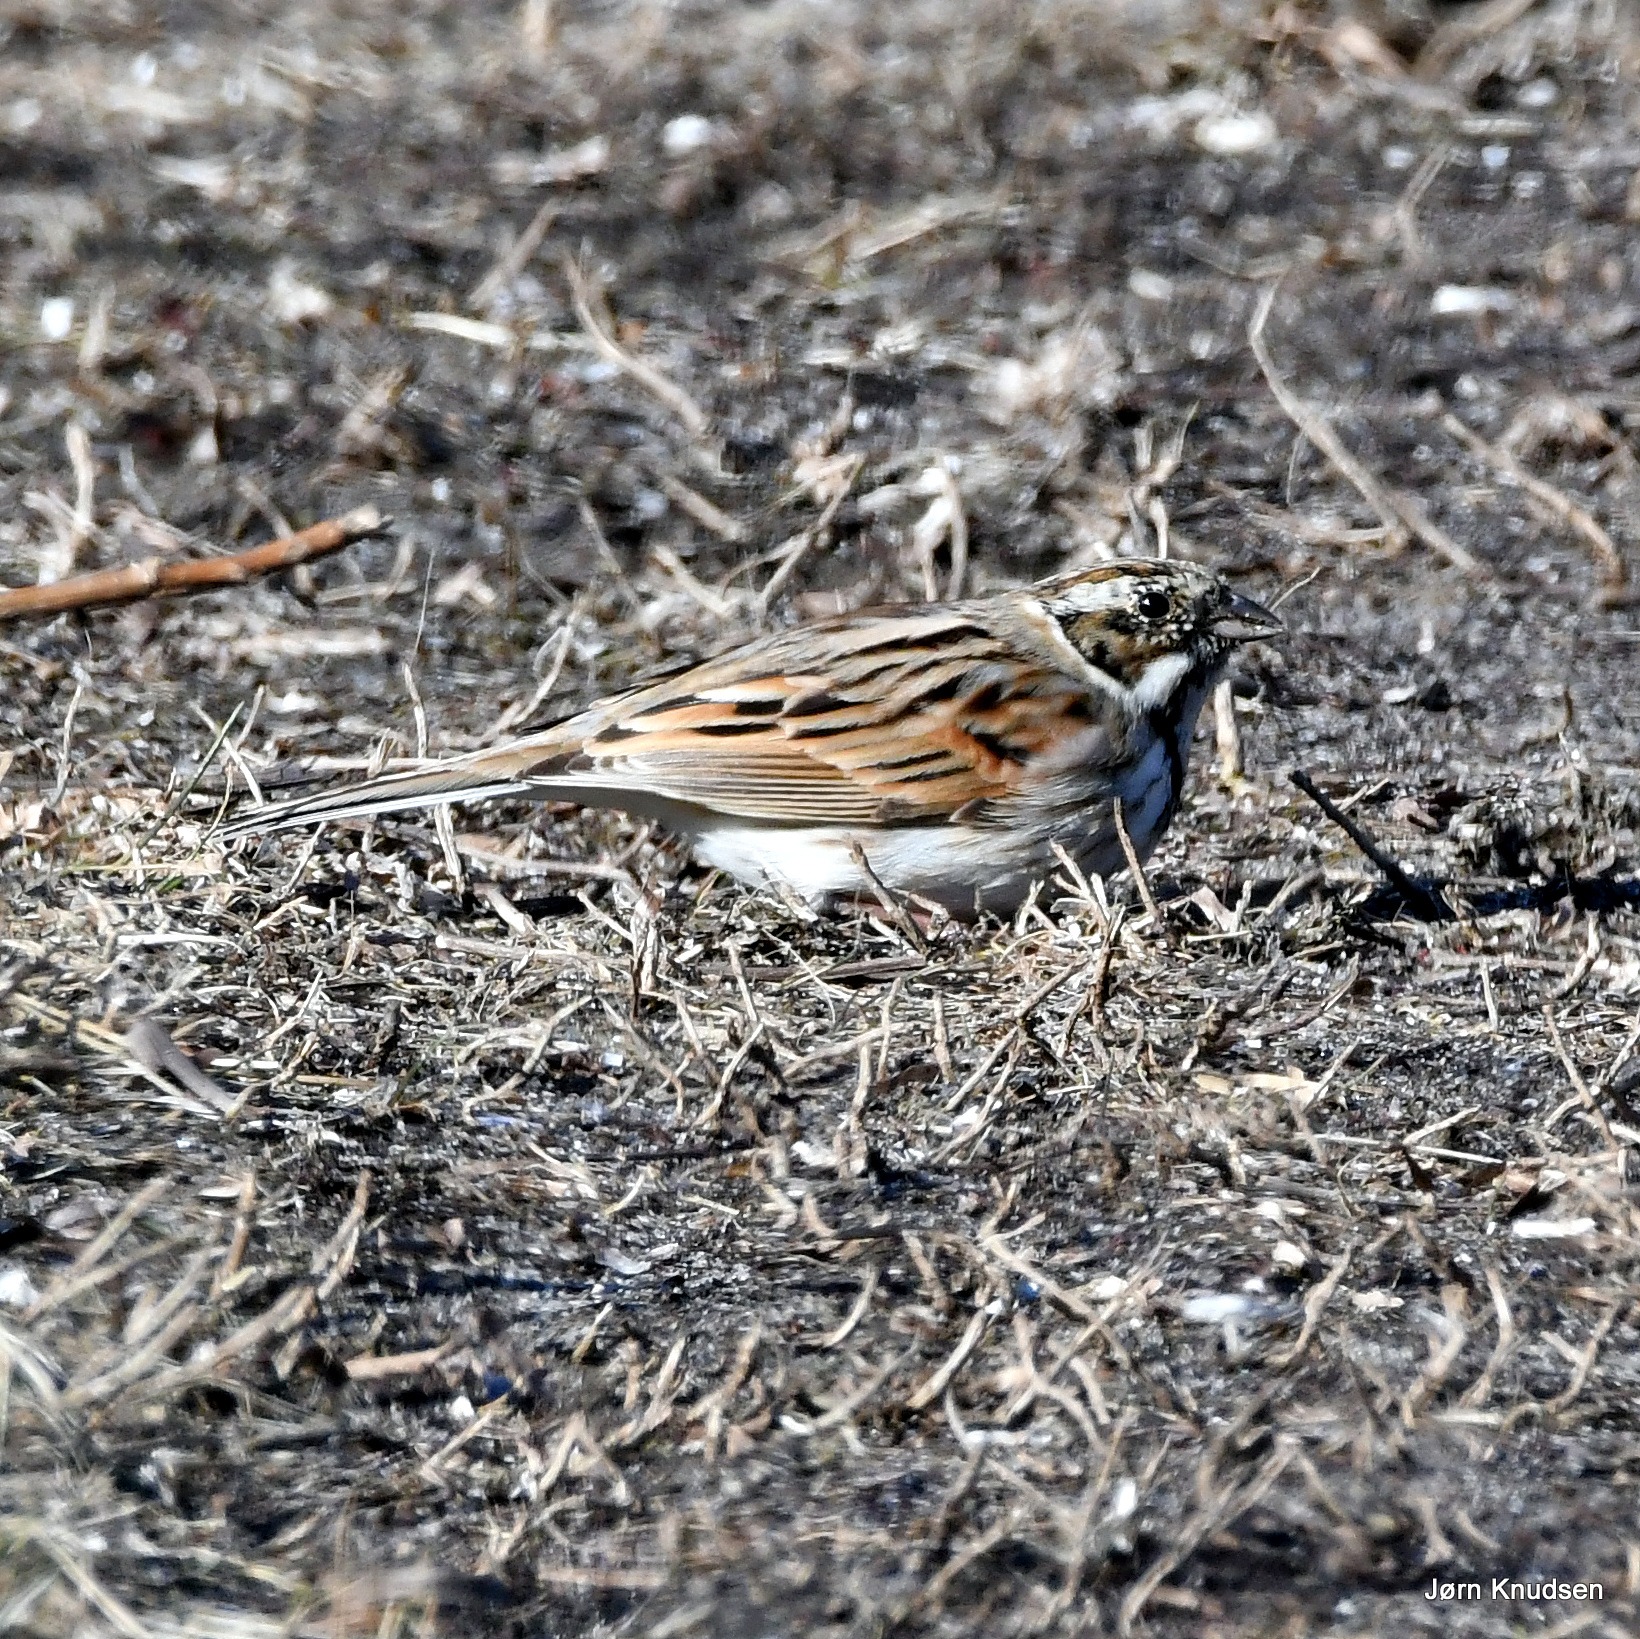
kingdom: Animalia
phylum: Chordata
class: Aves
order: Passeriformes
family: Emberizidae
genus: Emberiza
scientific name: Emberiza schoeniclus
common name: Rørspurv
